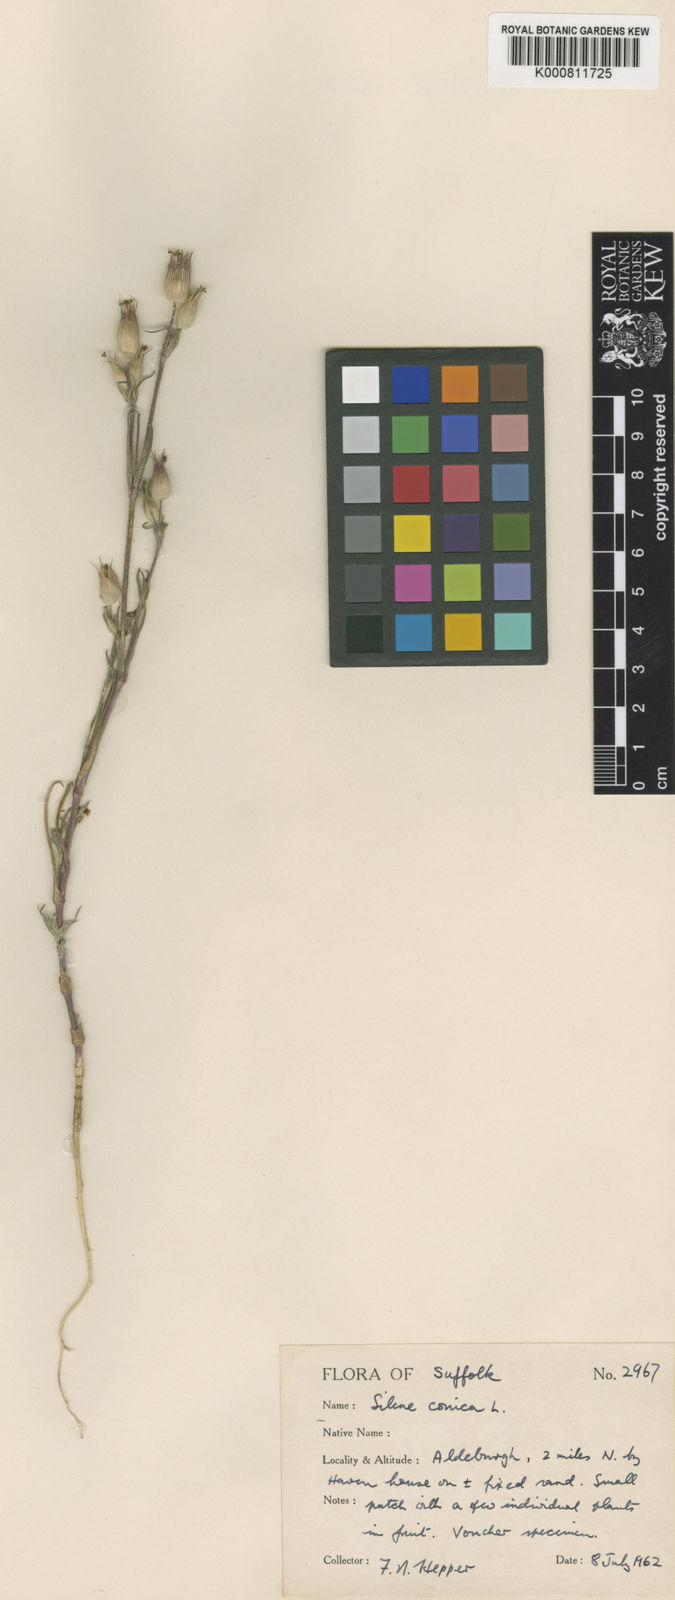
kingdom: Plantae
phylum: Tracheophyta
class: Magnoliopsida
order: Caryophyllales
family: Caryophyllaceae
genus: Silene
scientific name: Silene conica
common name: Sand catchfly
